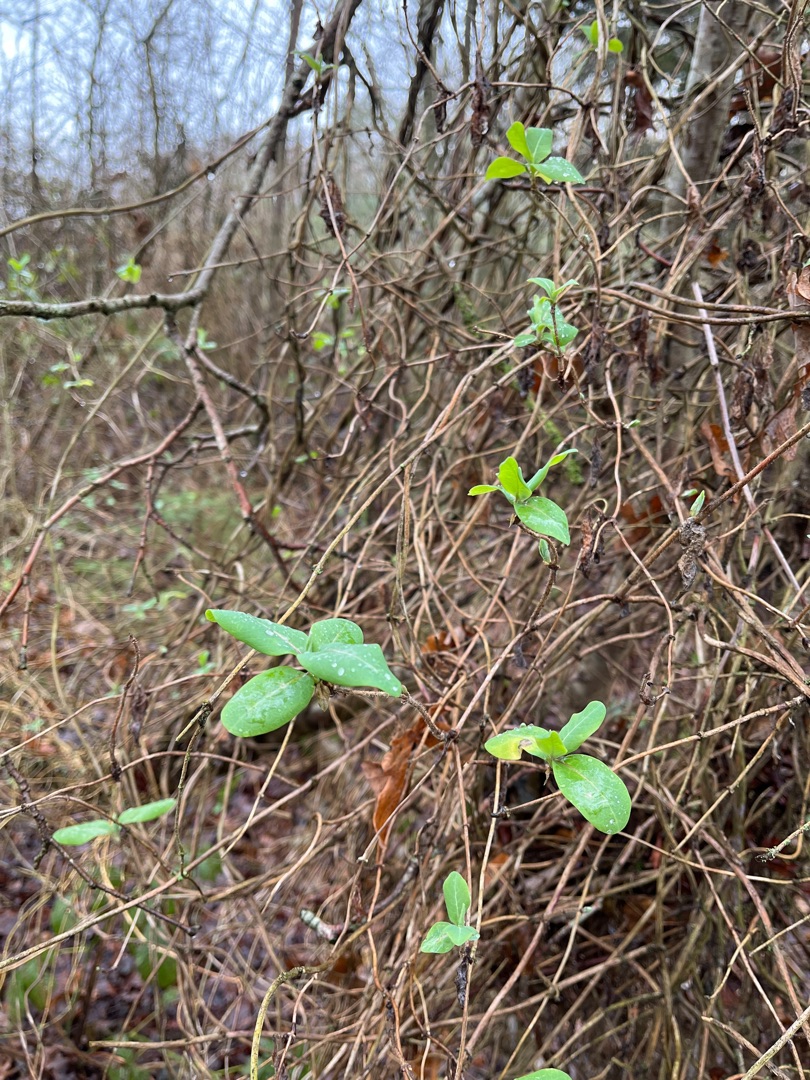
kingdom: Plantae
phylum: Tracheophyta
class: Magnoliopsida
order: Dipsacales
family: Caprifoliaceae
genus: Lonicera
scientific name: Lonicera periclymenum
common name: Almindelig gedeblad
